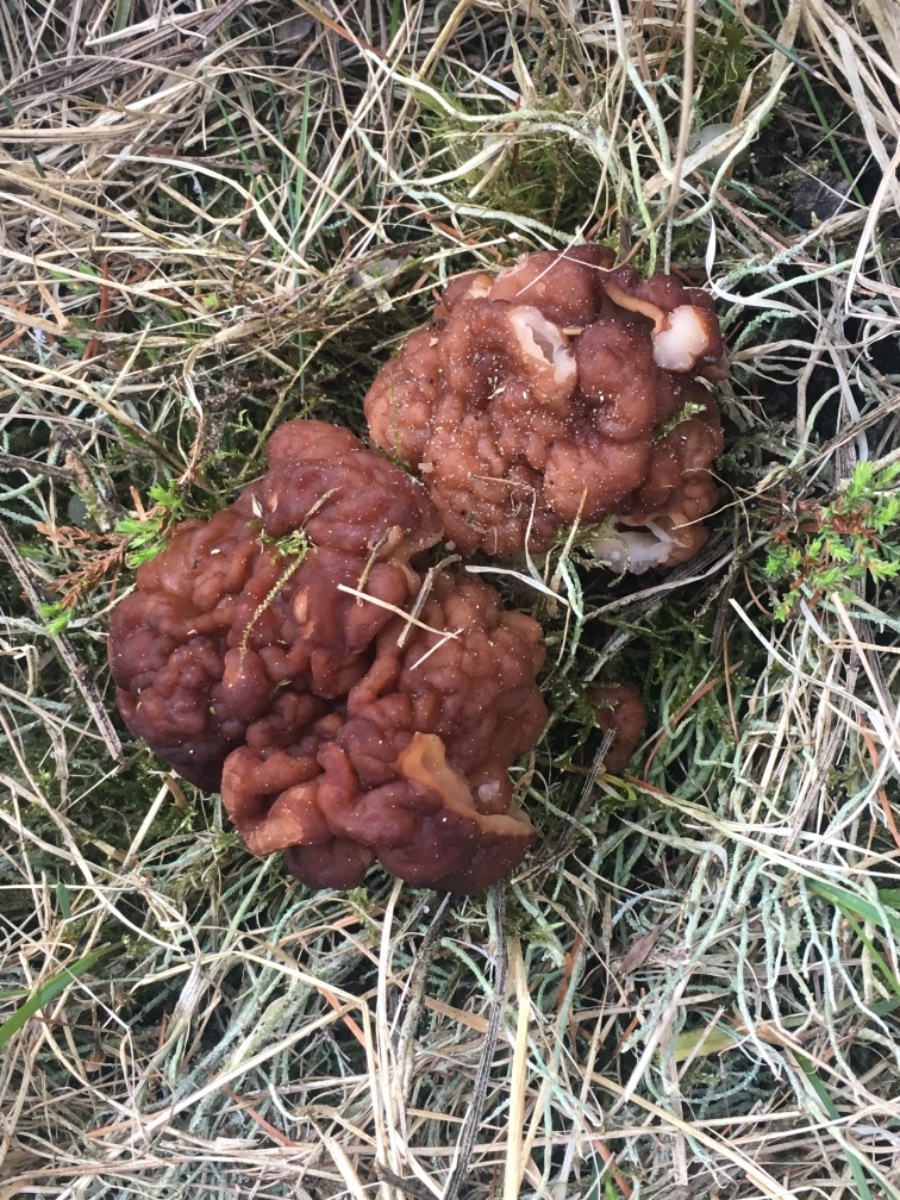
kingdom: Fungi
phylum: Ascomycota
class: Pezizomycetes
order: Pezizales
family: Discinaceae
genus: Gyromitra
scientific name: Gyromitra esculenta
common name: ægte stenmorkel
